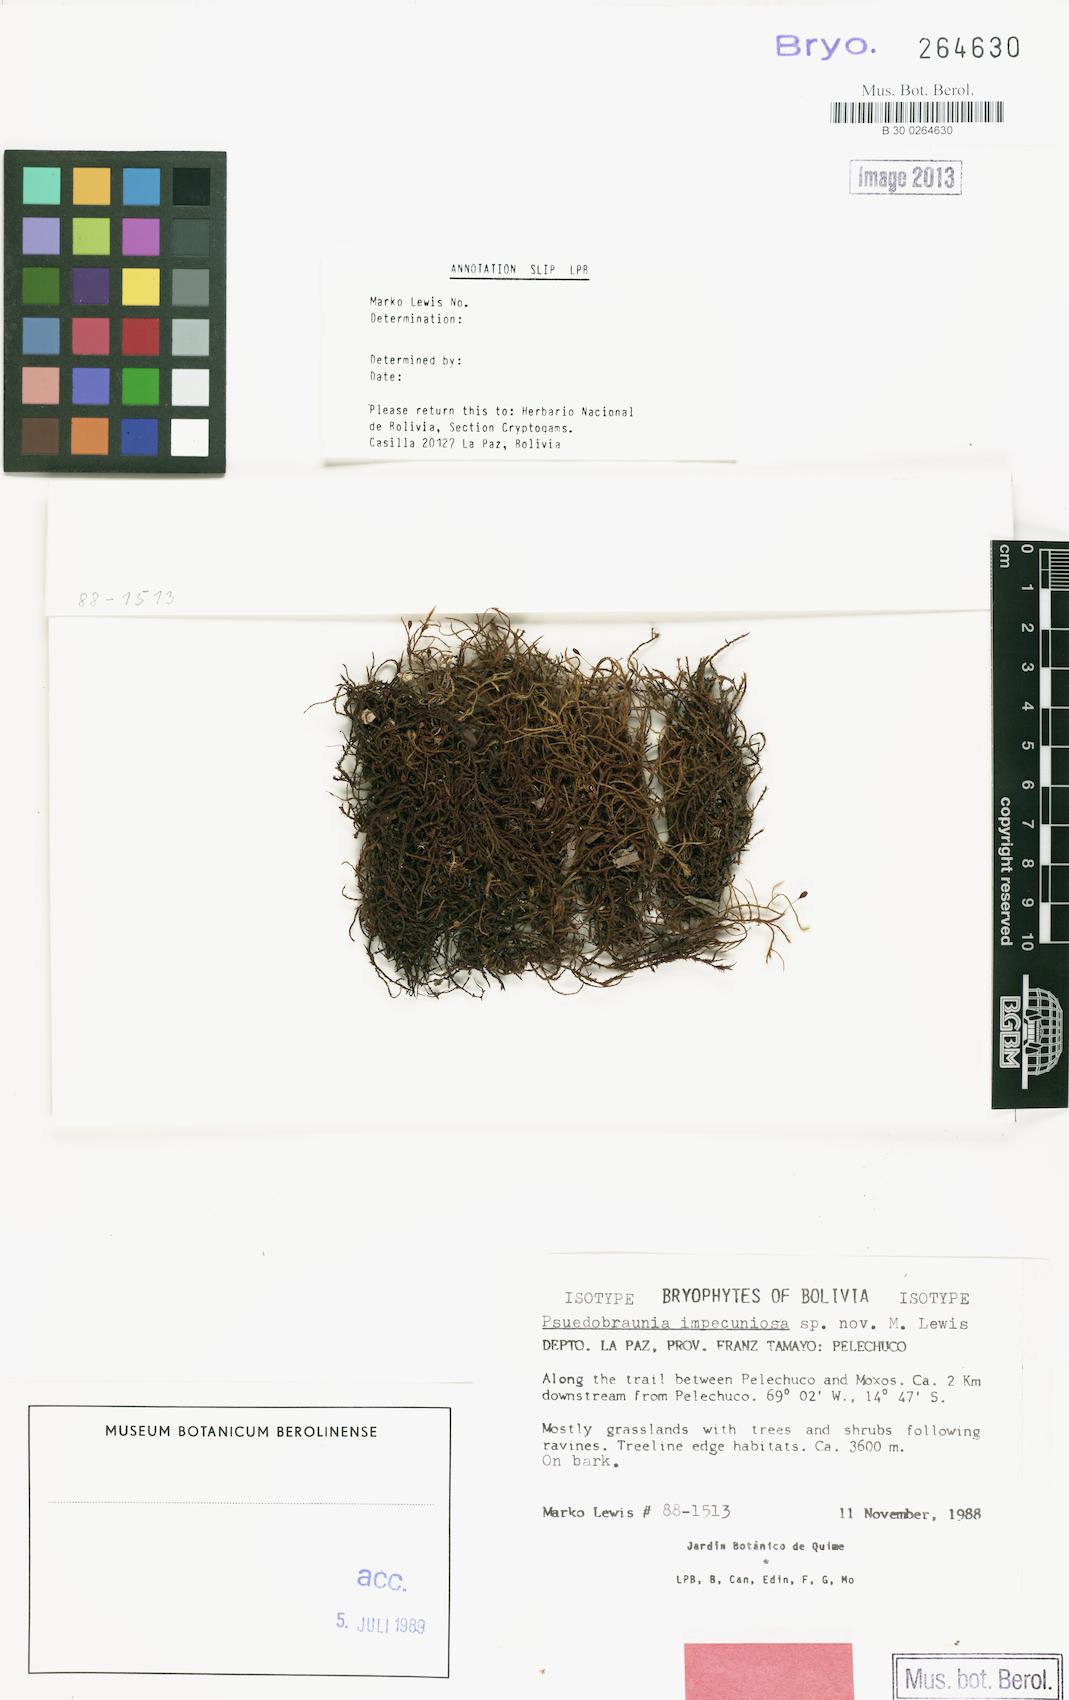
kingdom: Plantae
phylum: Bryophyta
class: Bryopsida
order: Hedwigiales
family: Hedwigiaceae
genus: Pseudobraunia
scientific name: Pseudobraunia
